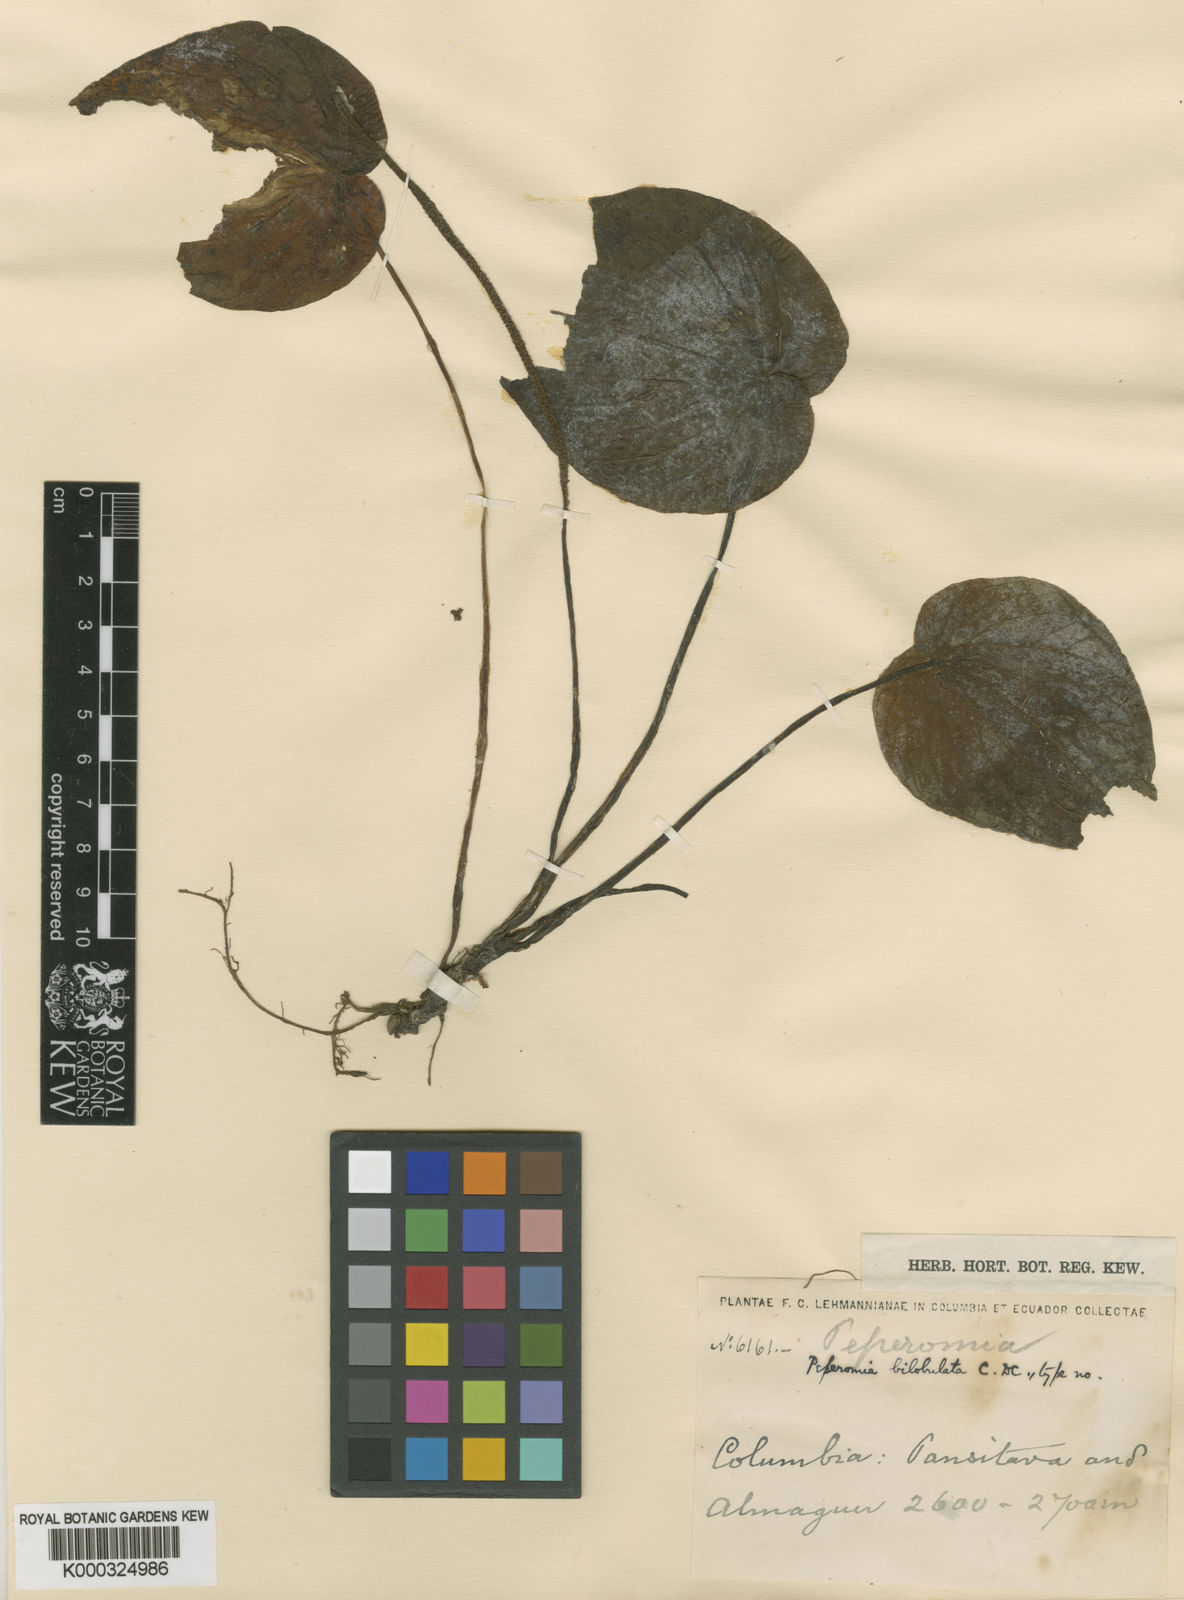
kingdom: Plantae
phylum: Tracheophyta
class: Magnoliopsida
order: Piperales
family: Piperaceae
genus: Peperomia
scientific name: Peperomia bilobulata
